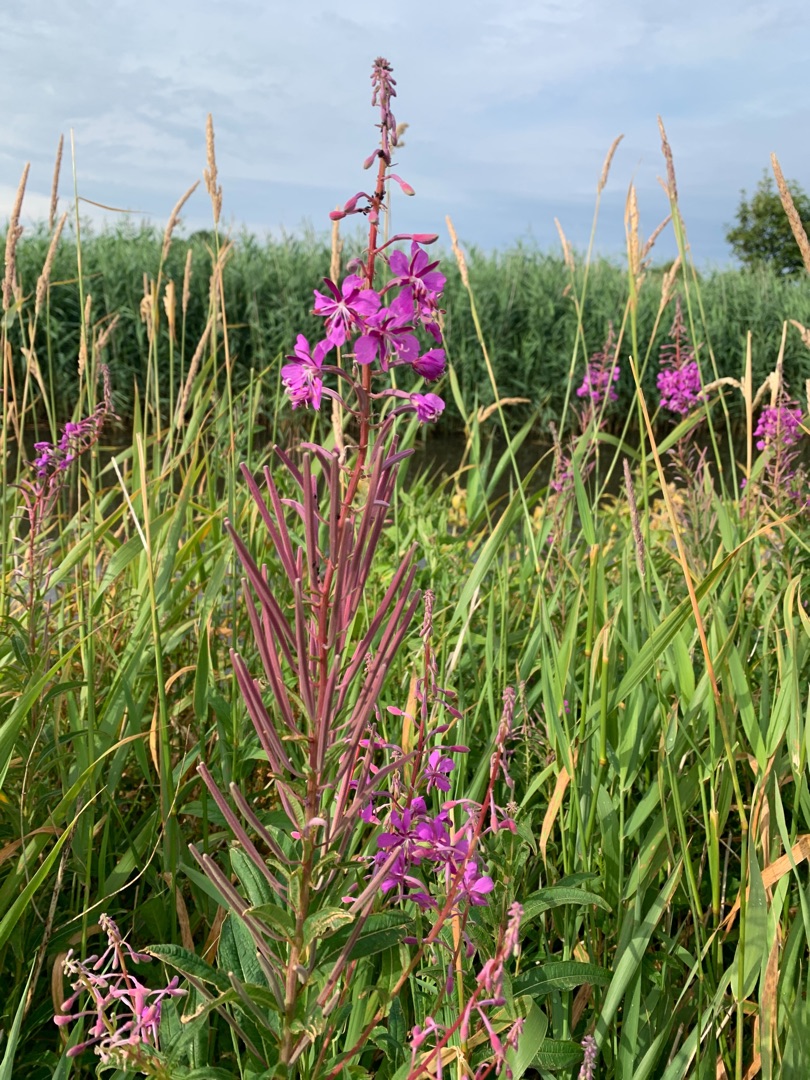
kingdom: Plantae
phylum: Tracheophyta
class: Magnoliopsida
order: Myrtales
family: Onagraceae
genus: Chamaenerion
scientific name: Chamaenerion angustifolium
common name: Gederams
